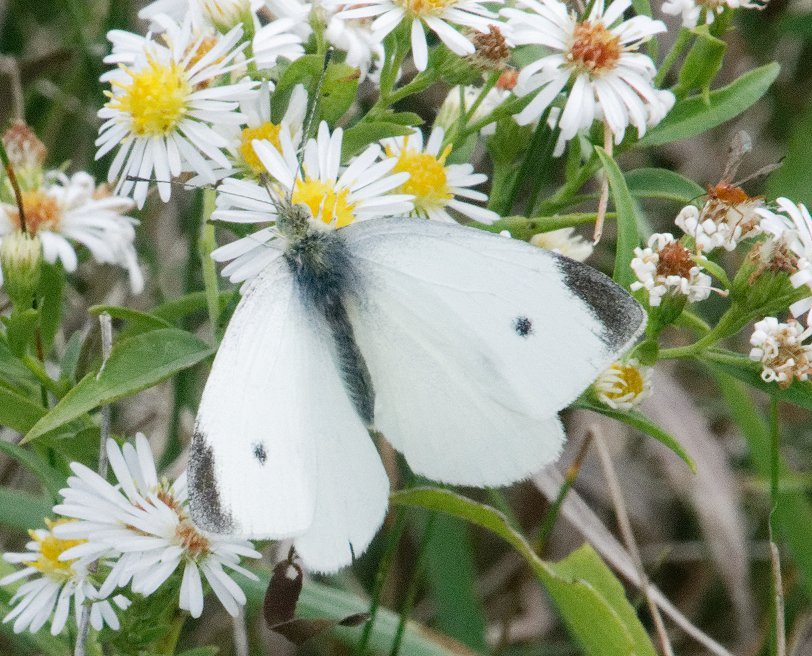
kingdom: Animalia
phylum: Arthropoda
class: Insecta
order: Lepidoptera
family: Pieridae
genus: Pieris
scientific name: Pieris rapae
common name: Cabbage White
